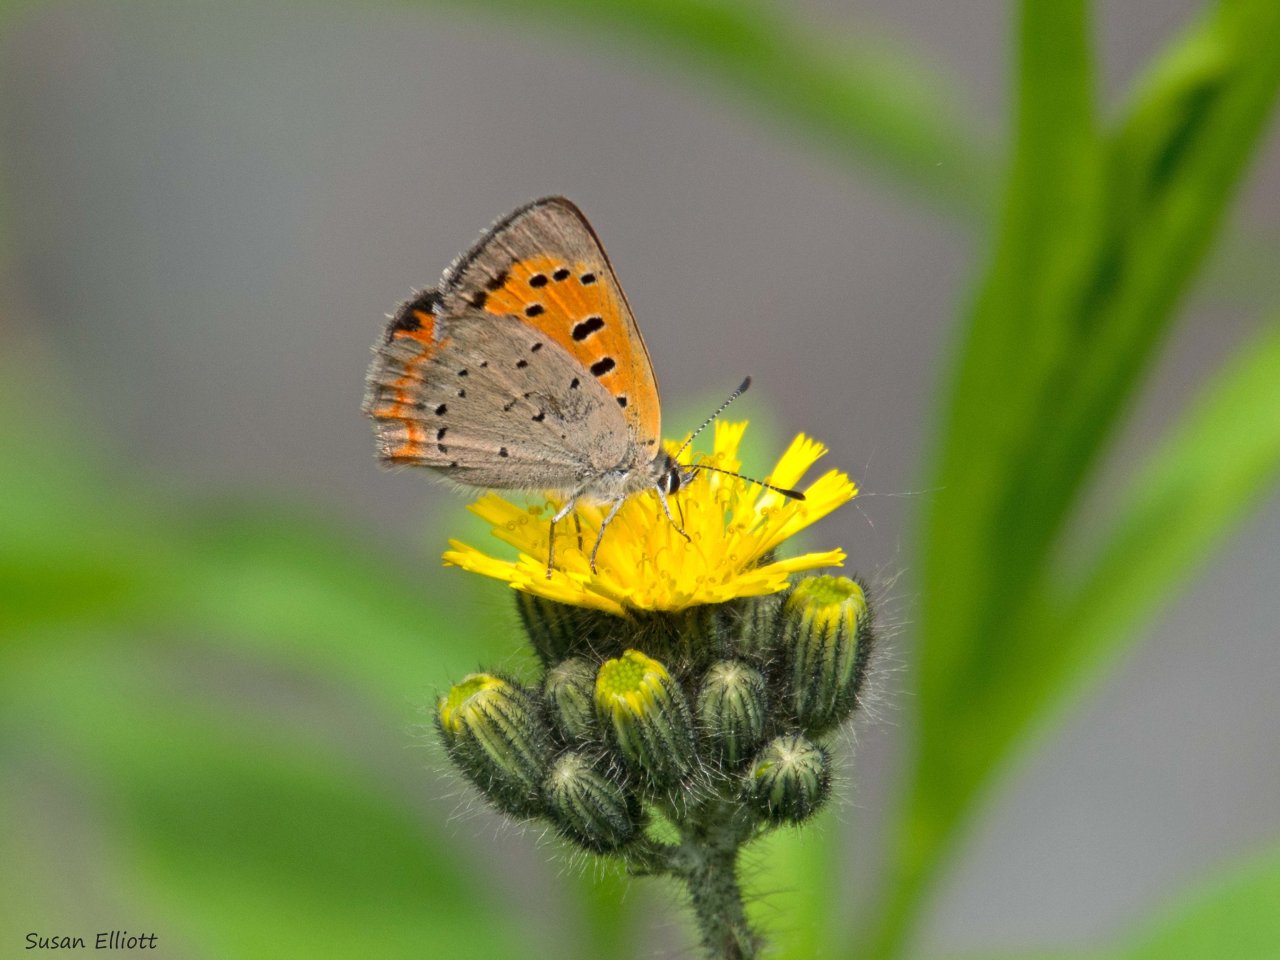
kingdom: Animalia
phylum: Arthropoda
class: Insecta
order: Lepidoptera
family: Lycaenidae
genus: Lycaena
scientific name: Lycaena phlaeas
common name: American Copper
